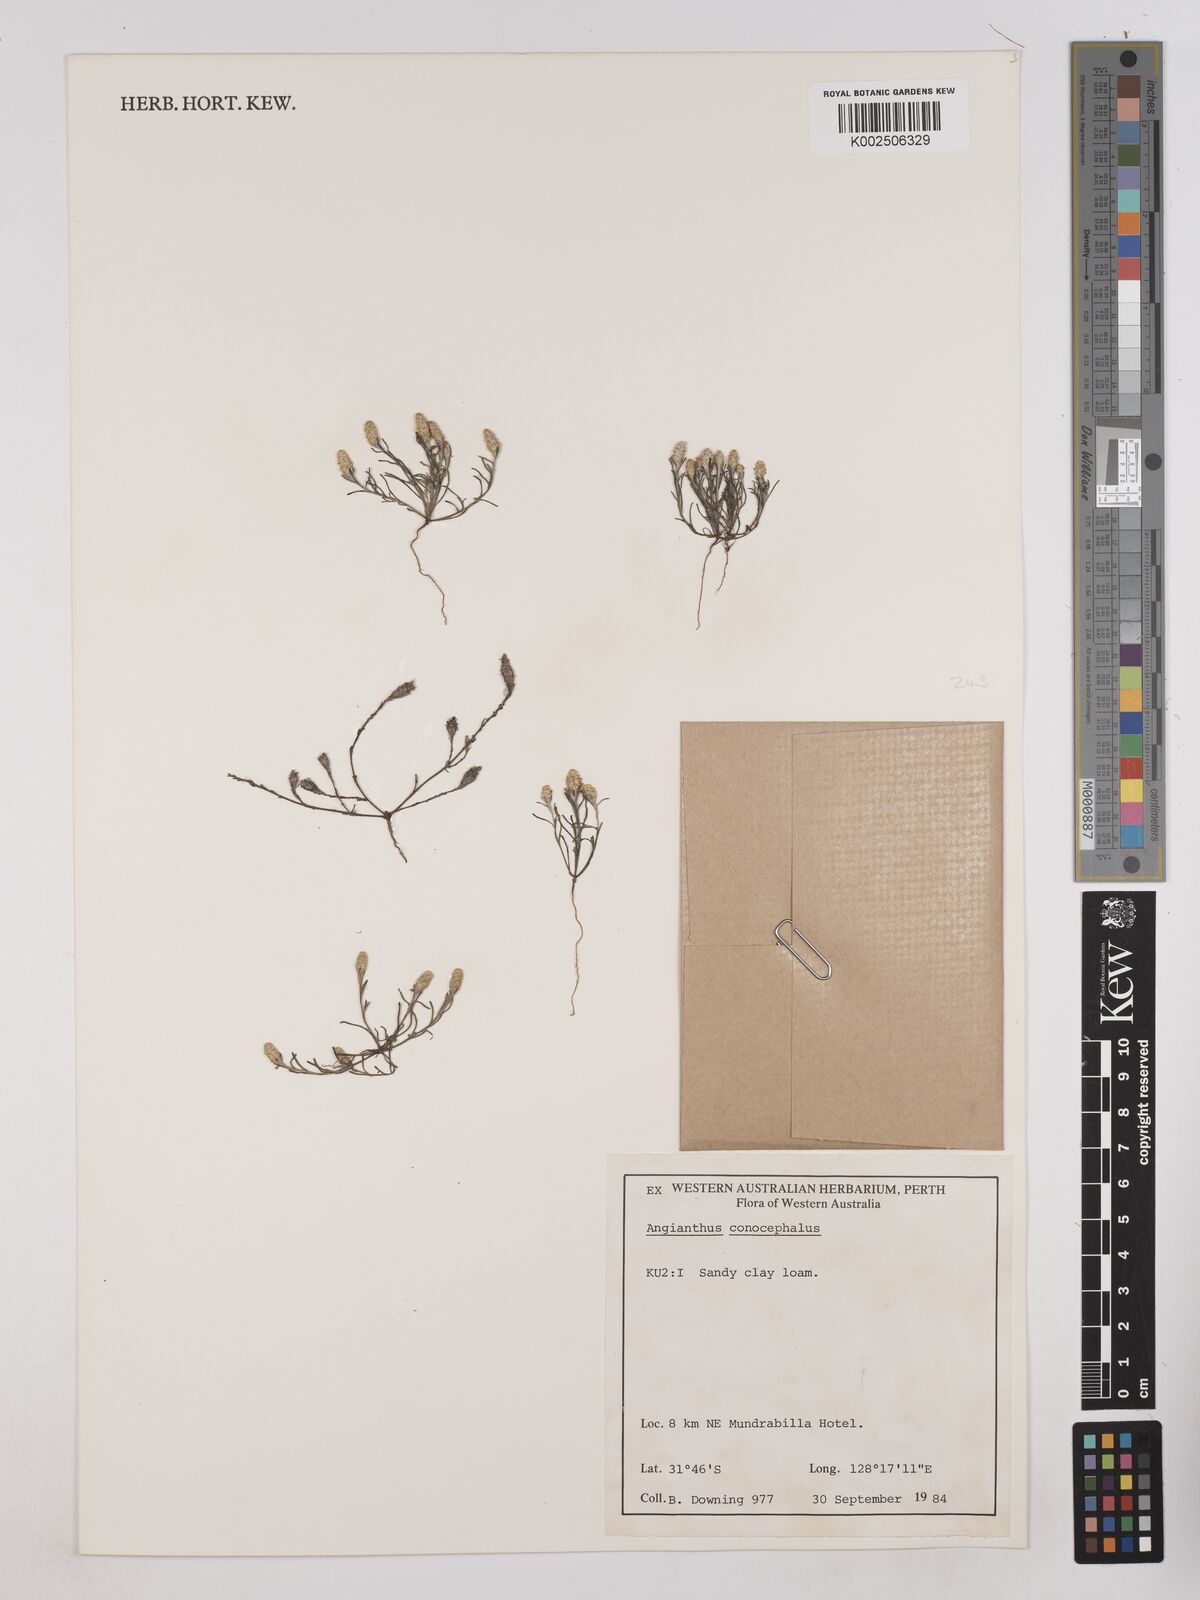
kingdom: Plantae
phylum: Tracheophyta
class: Magnoliopsida
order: Asterales
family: Asteraceae
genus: Angianthus
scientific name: Angianthus conocephalus
